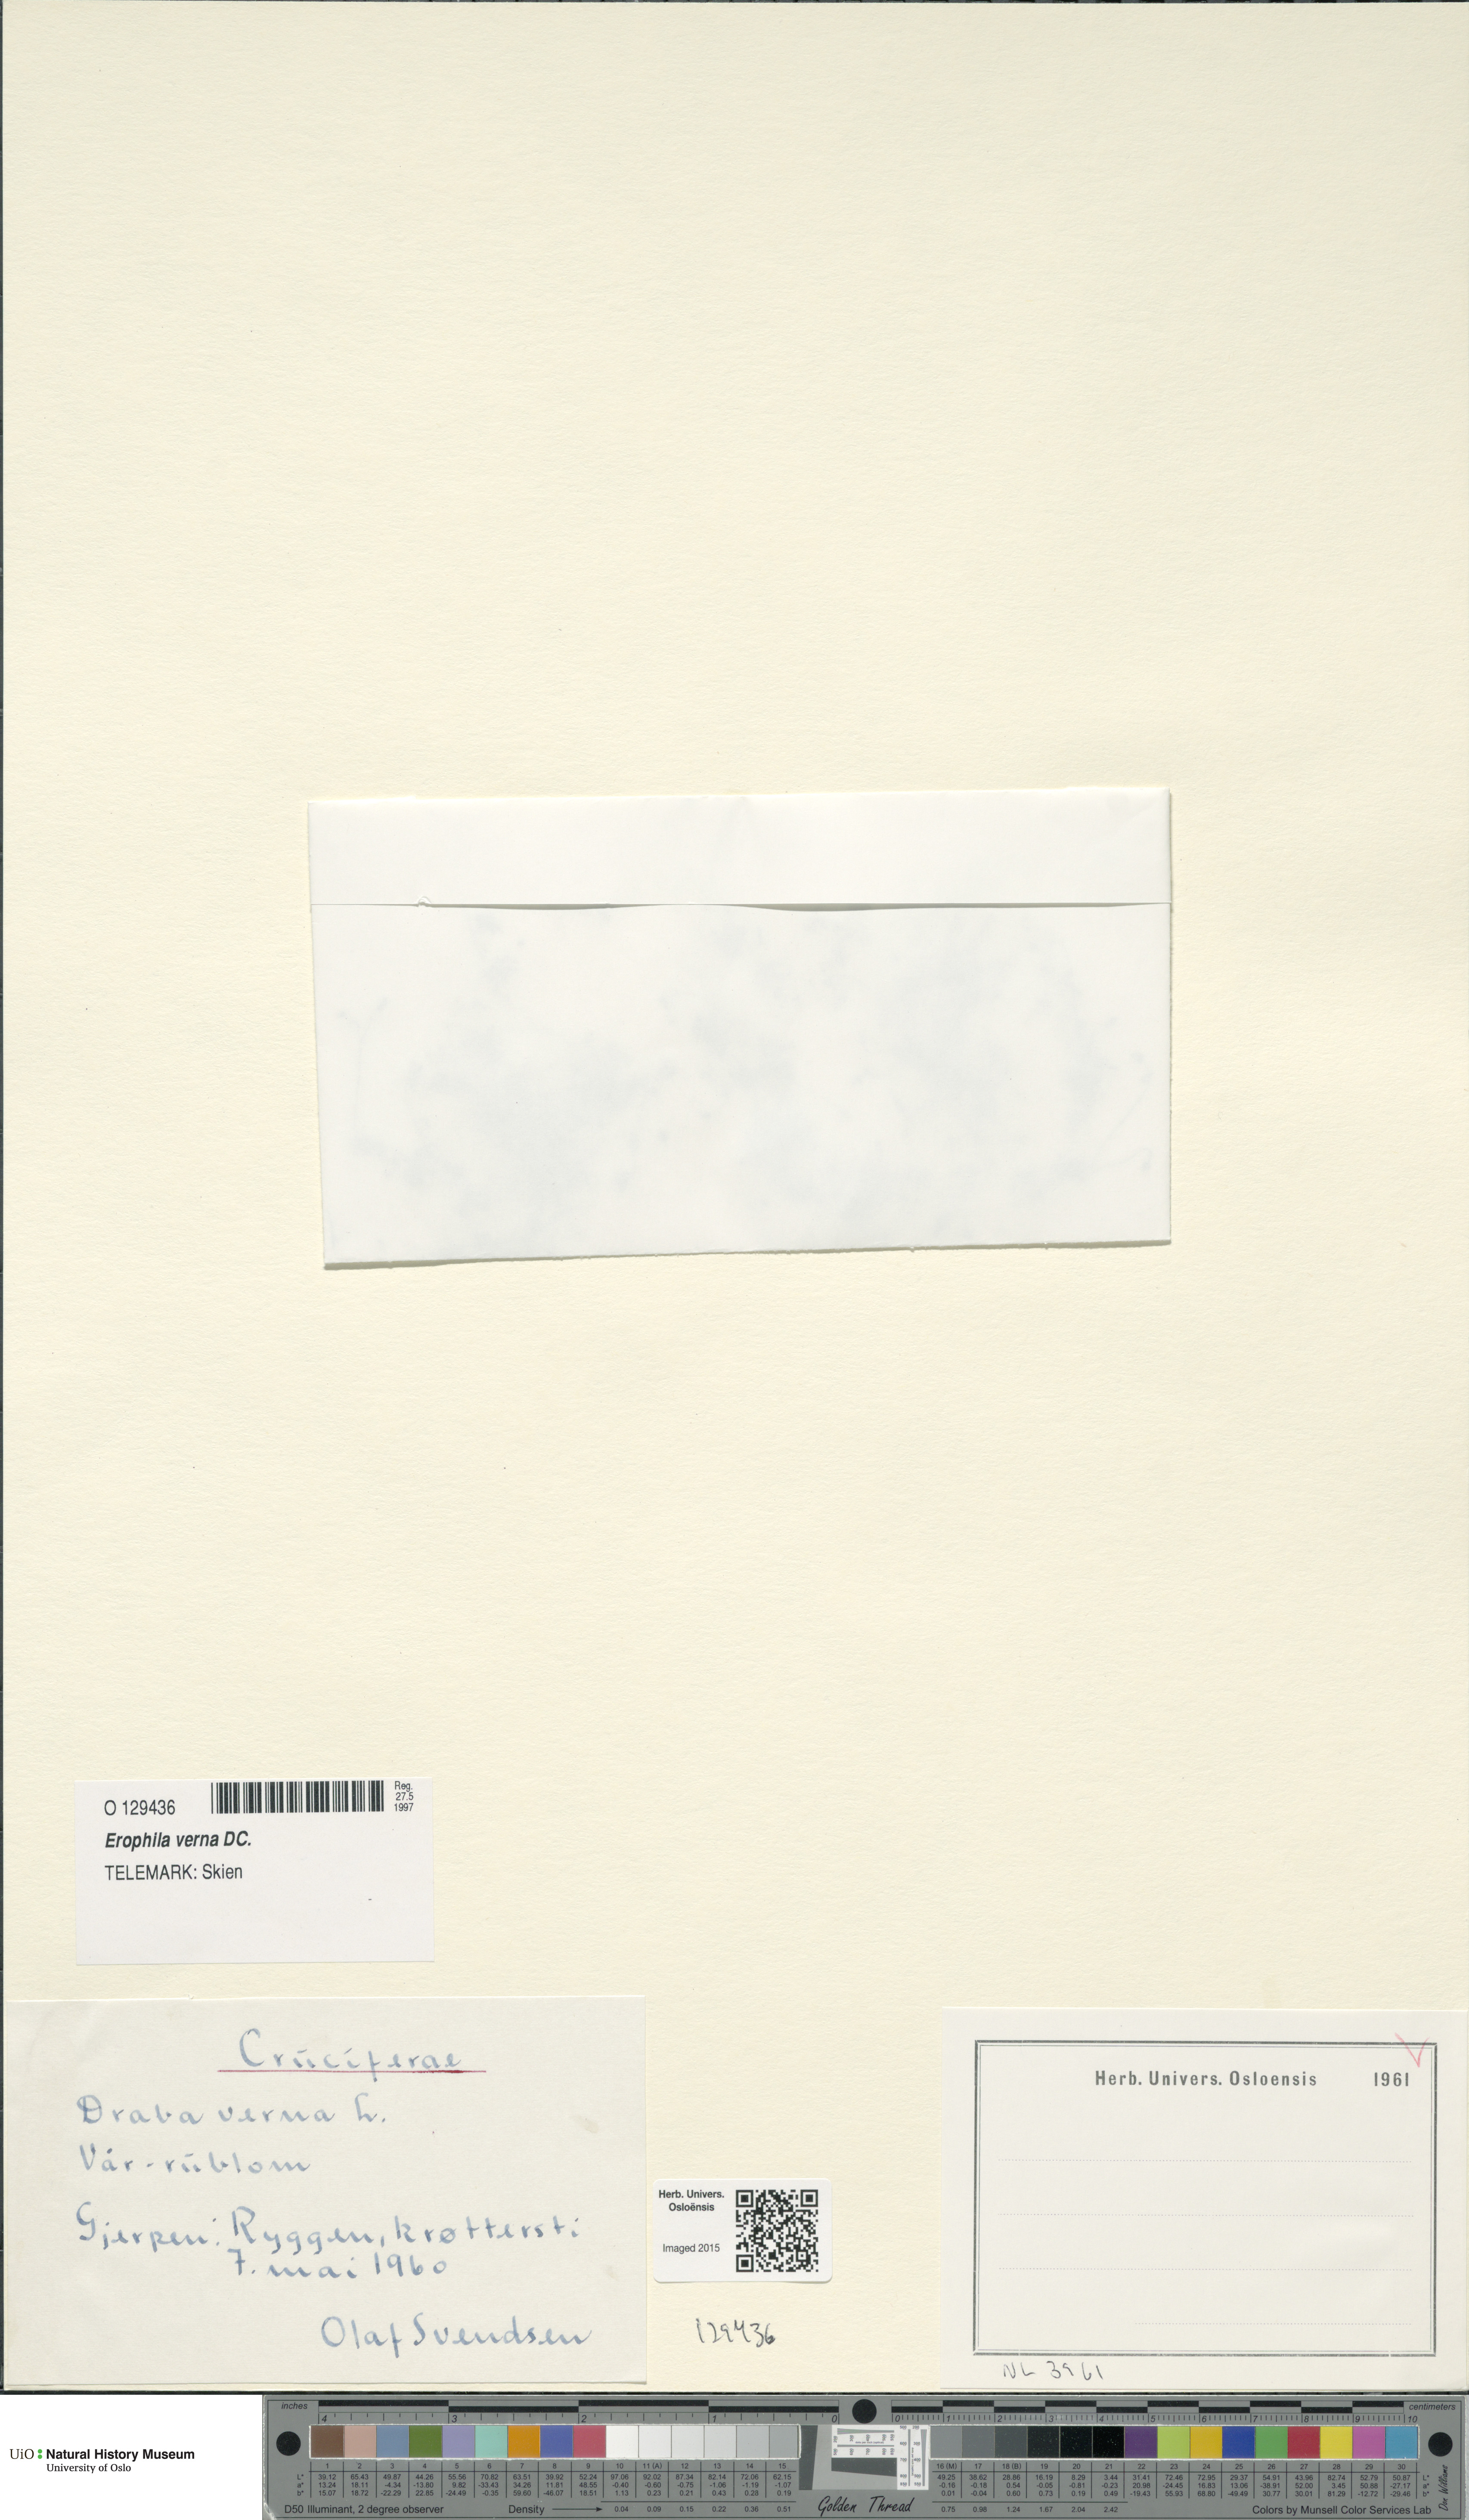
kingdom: Plantae
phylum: Tracheophyta
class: Magnoliopsida
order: Brassicales
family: Brassicaceae
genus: Draba
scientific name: Draba verna
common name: Spring draba
